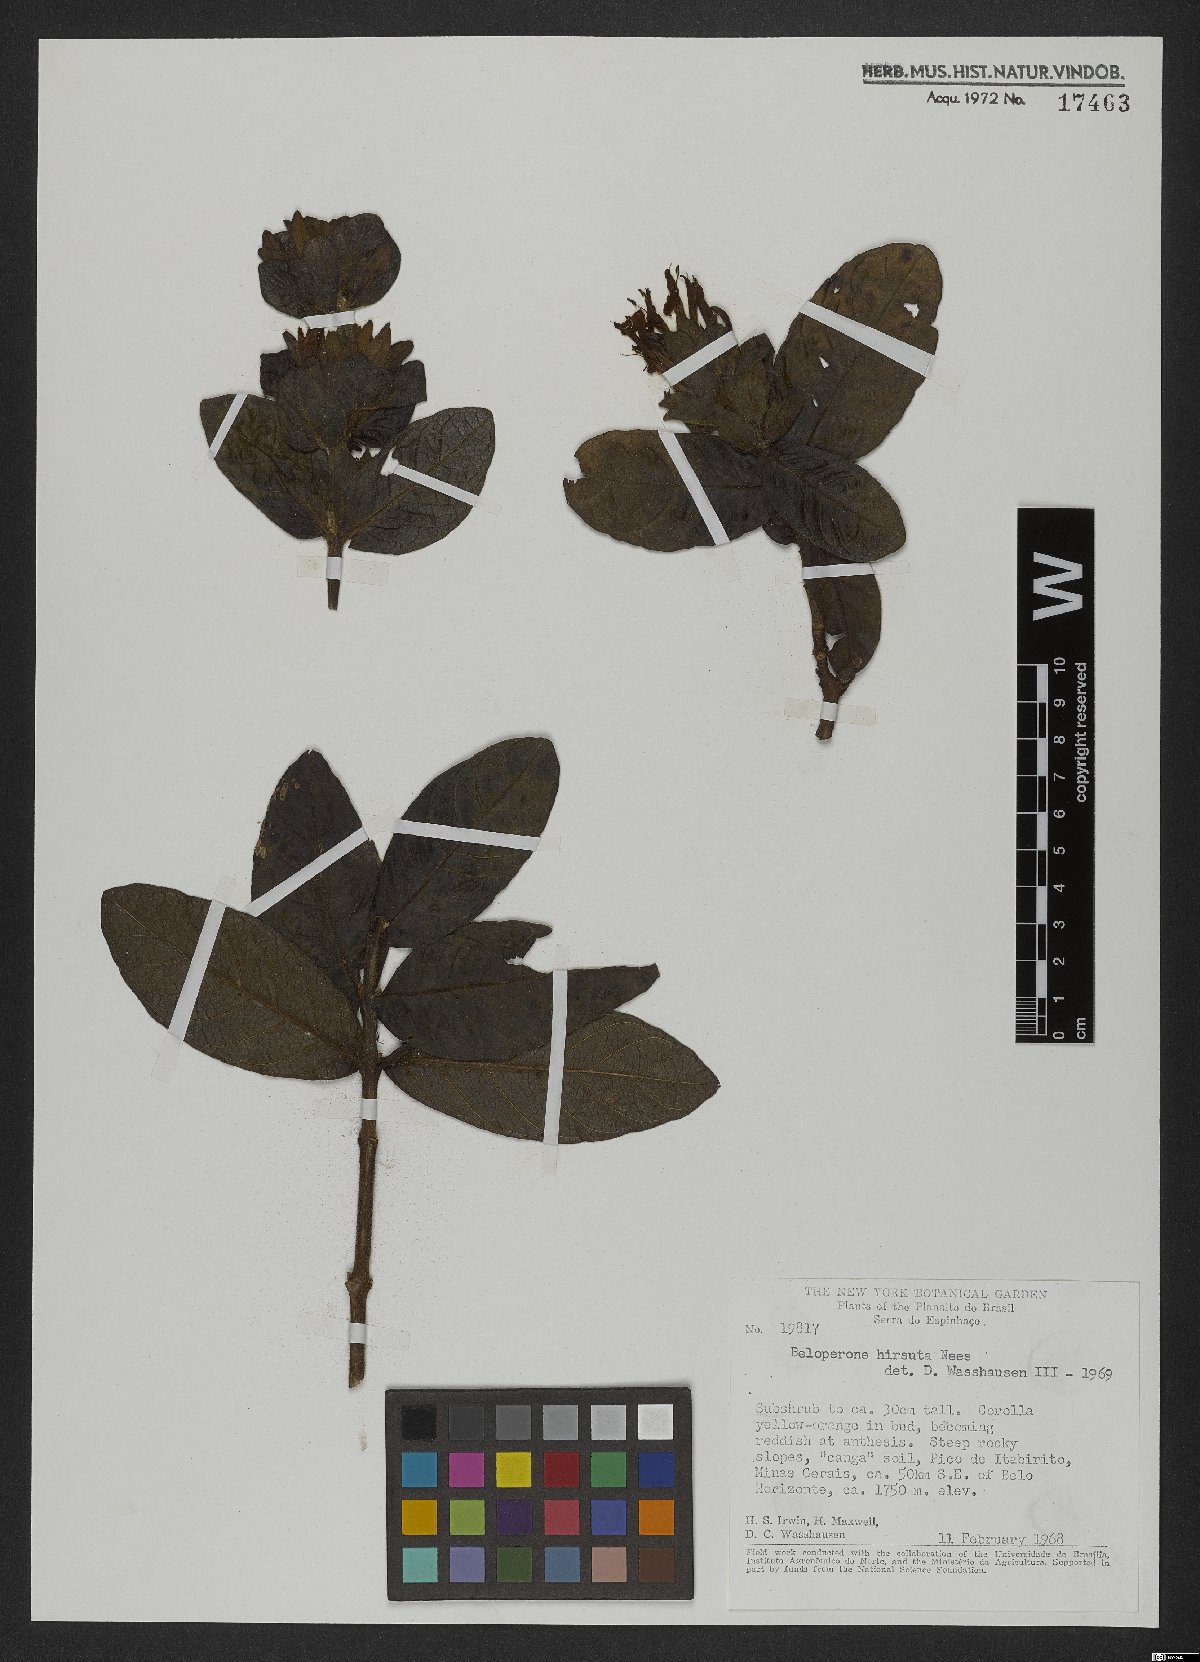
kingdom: Plantae
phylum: Tracheophyta
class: Magnoliopsida
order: Gentianales
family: Rubiaceae
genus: Gonzalagunia
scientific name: Gonzalagunia hirsuta
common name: Mata de mariposa
